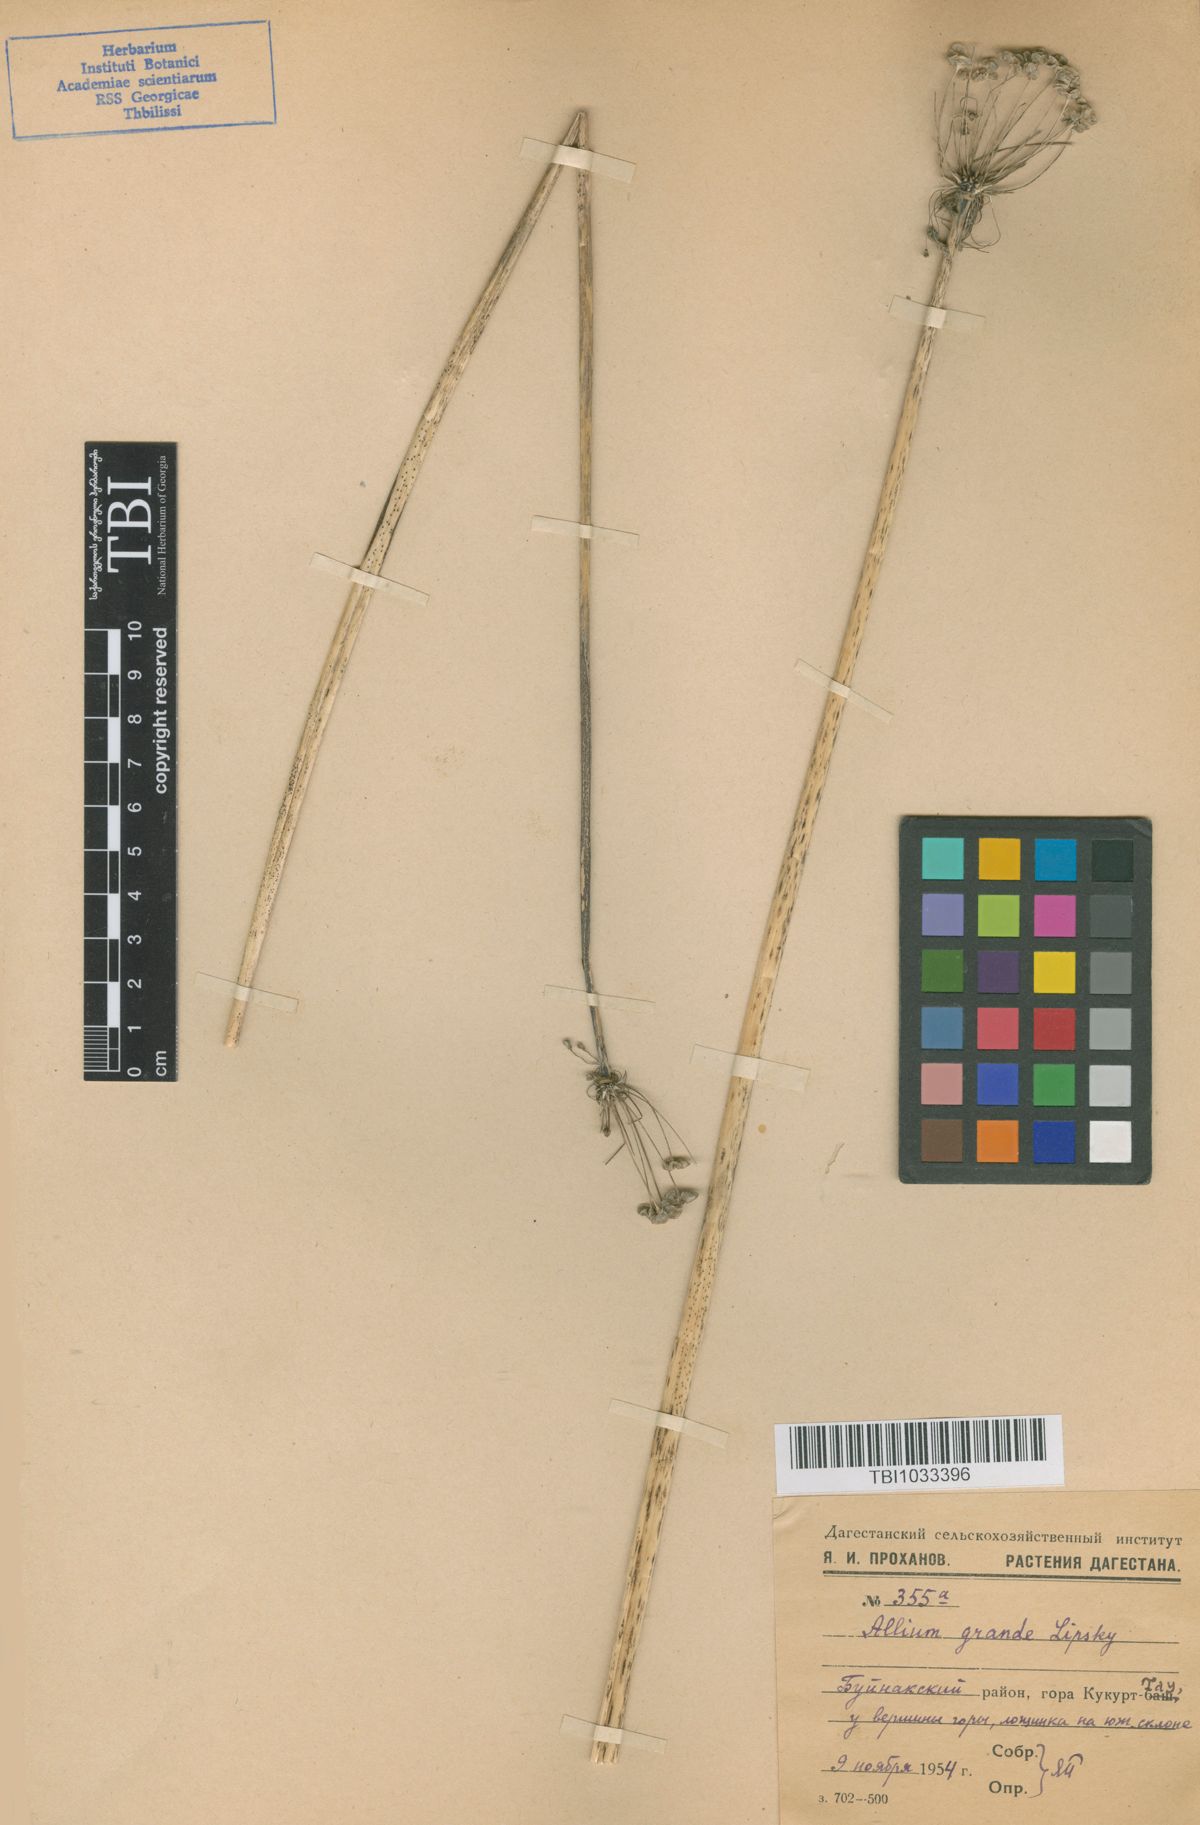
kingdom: Plantae
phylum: Tracheophyta
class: Liliopsida
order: Asparagales
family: Amaryllidaceae
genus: Allium
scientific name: Allium grande
